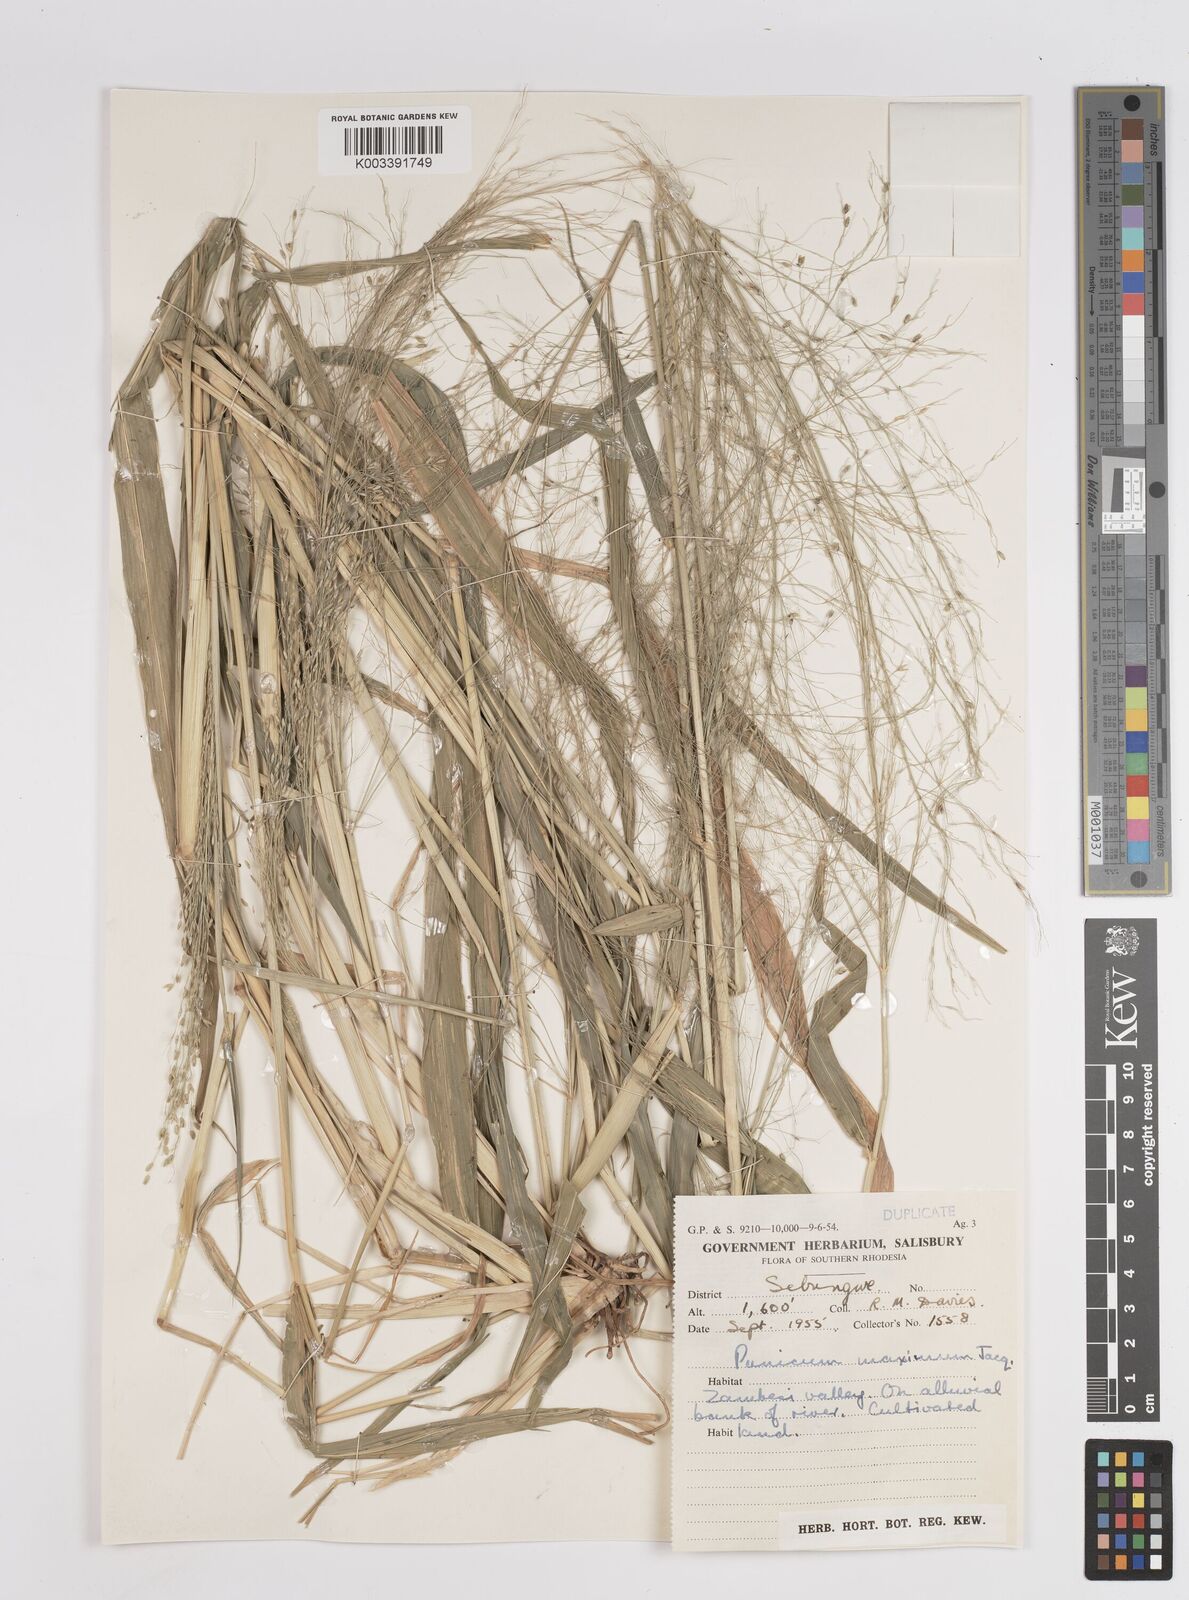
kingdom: Plantae
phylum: Tracheophyta
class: Liliopsida
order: Poales
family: Poaceae
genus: Megathyrsus
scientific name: Megathyrsus maximus
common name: Guineagrass
